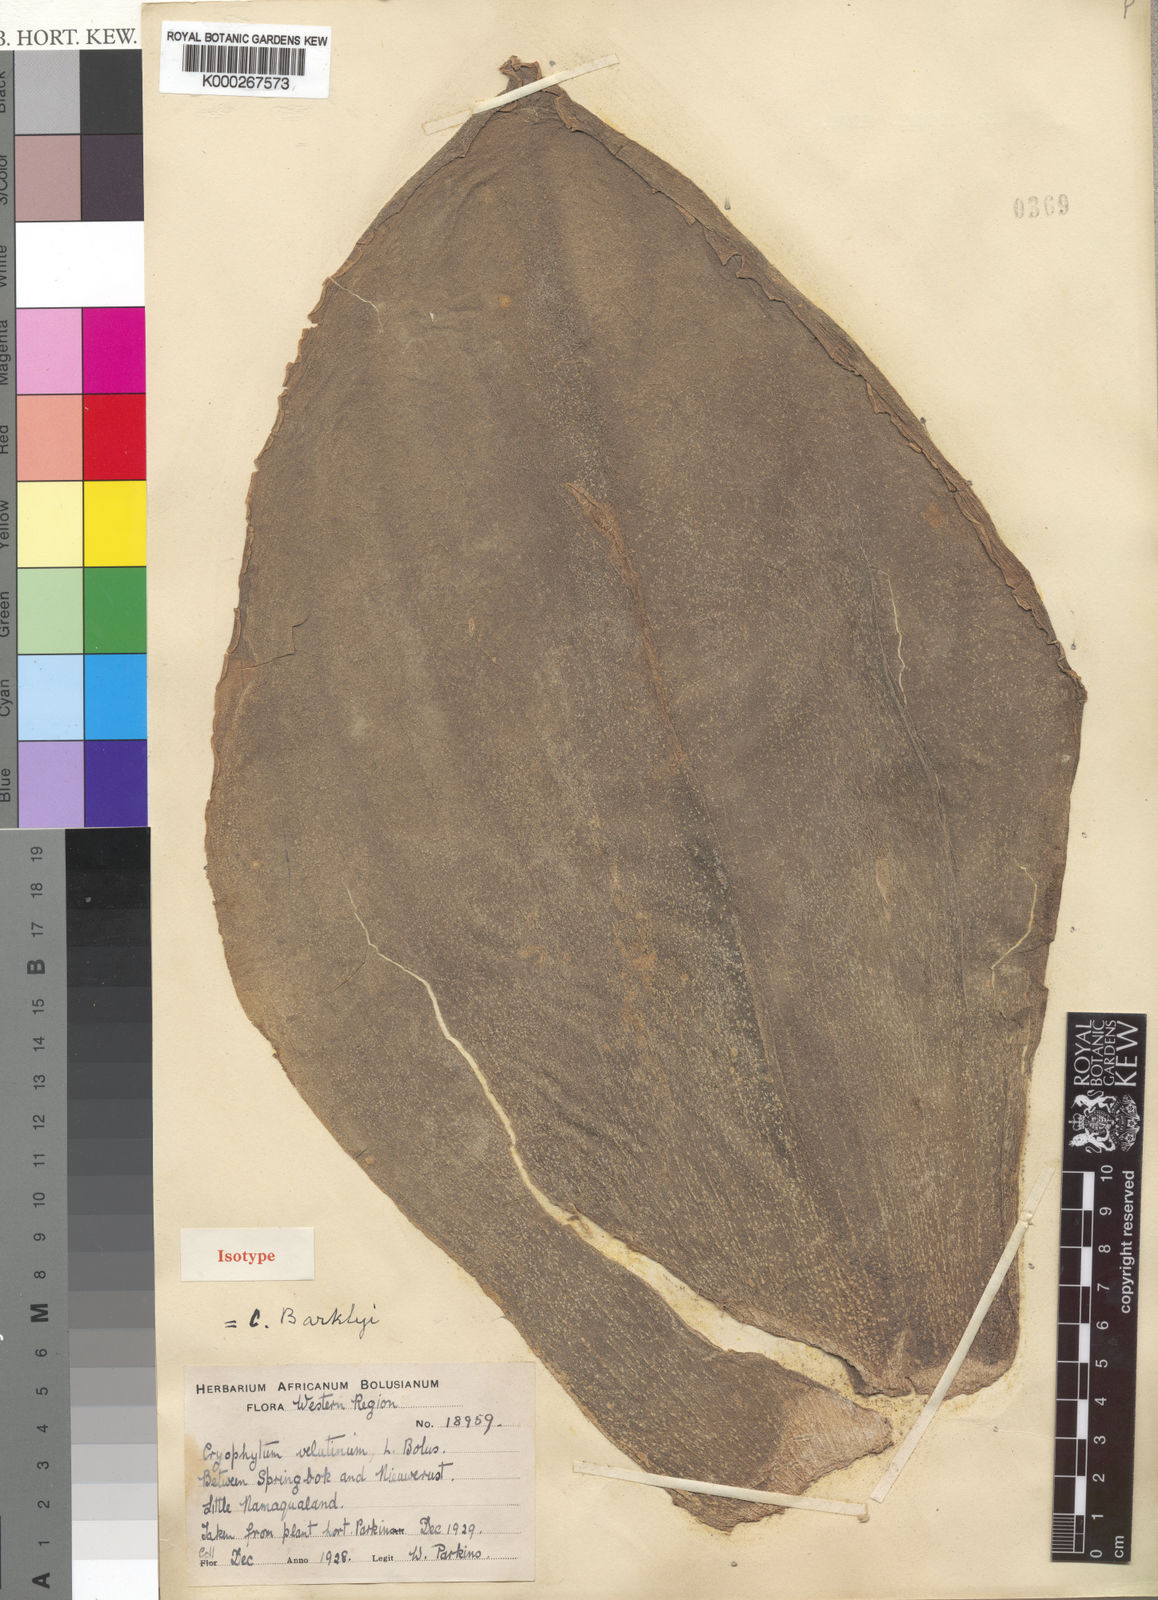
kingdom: Plantae
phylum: Tracheophyta
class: Magnoliopsida
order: Caryophyllales
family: Aizoaceae
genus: Mesembryanthemum
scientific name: Mesembryanthemum barklyi
